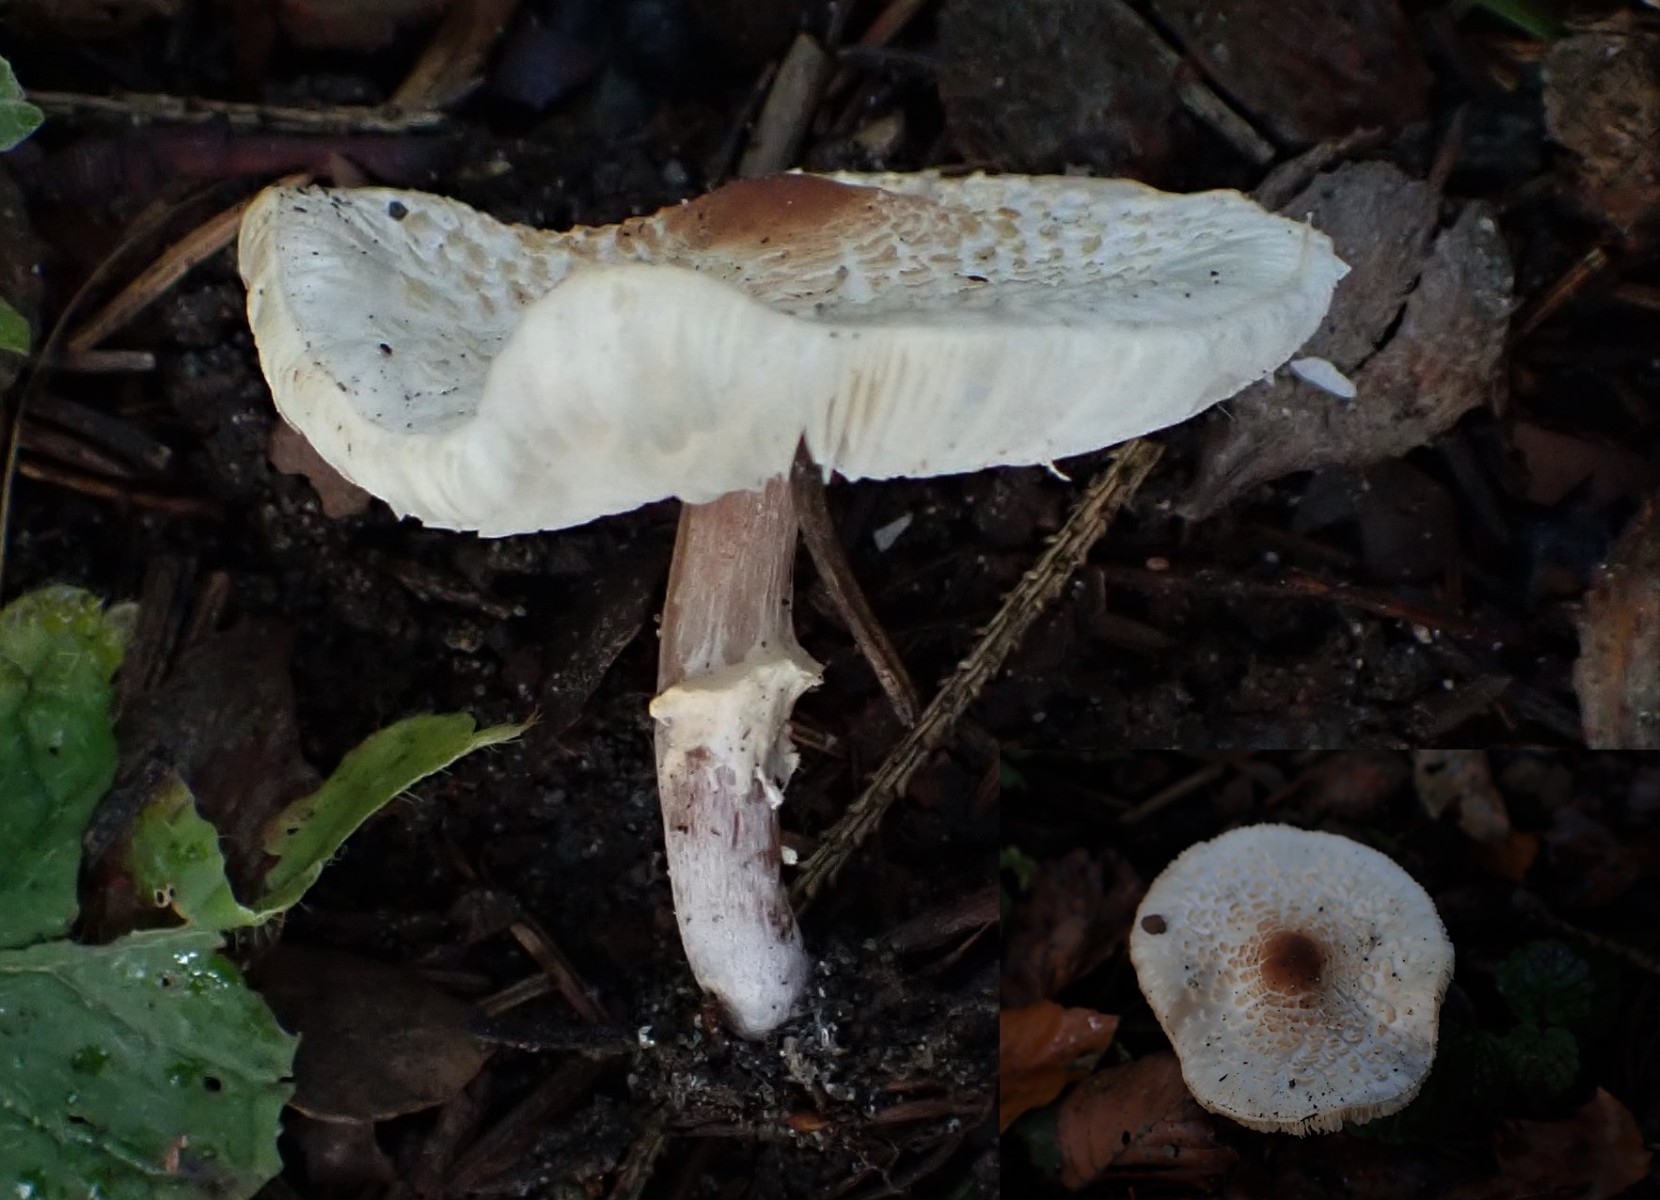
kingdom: Fungi
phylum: Basidiomycota
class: Agaricomycetes
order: Agaricales
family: Agaricaceae
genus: Lepiota
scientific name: Lepiota cristata
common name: stinkende parasolhat
